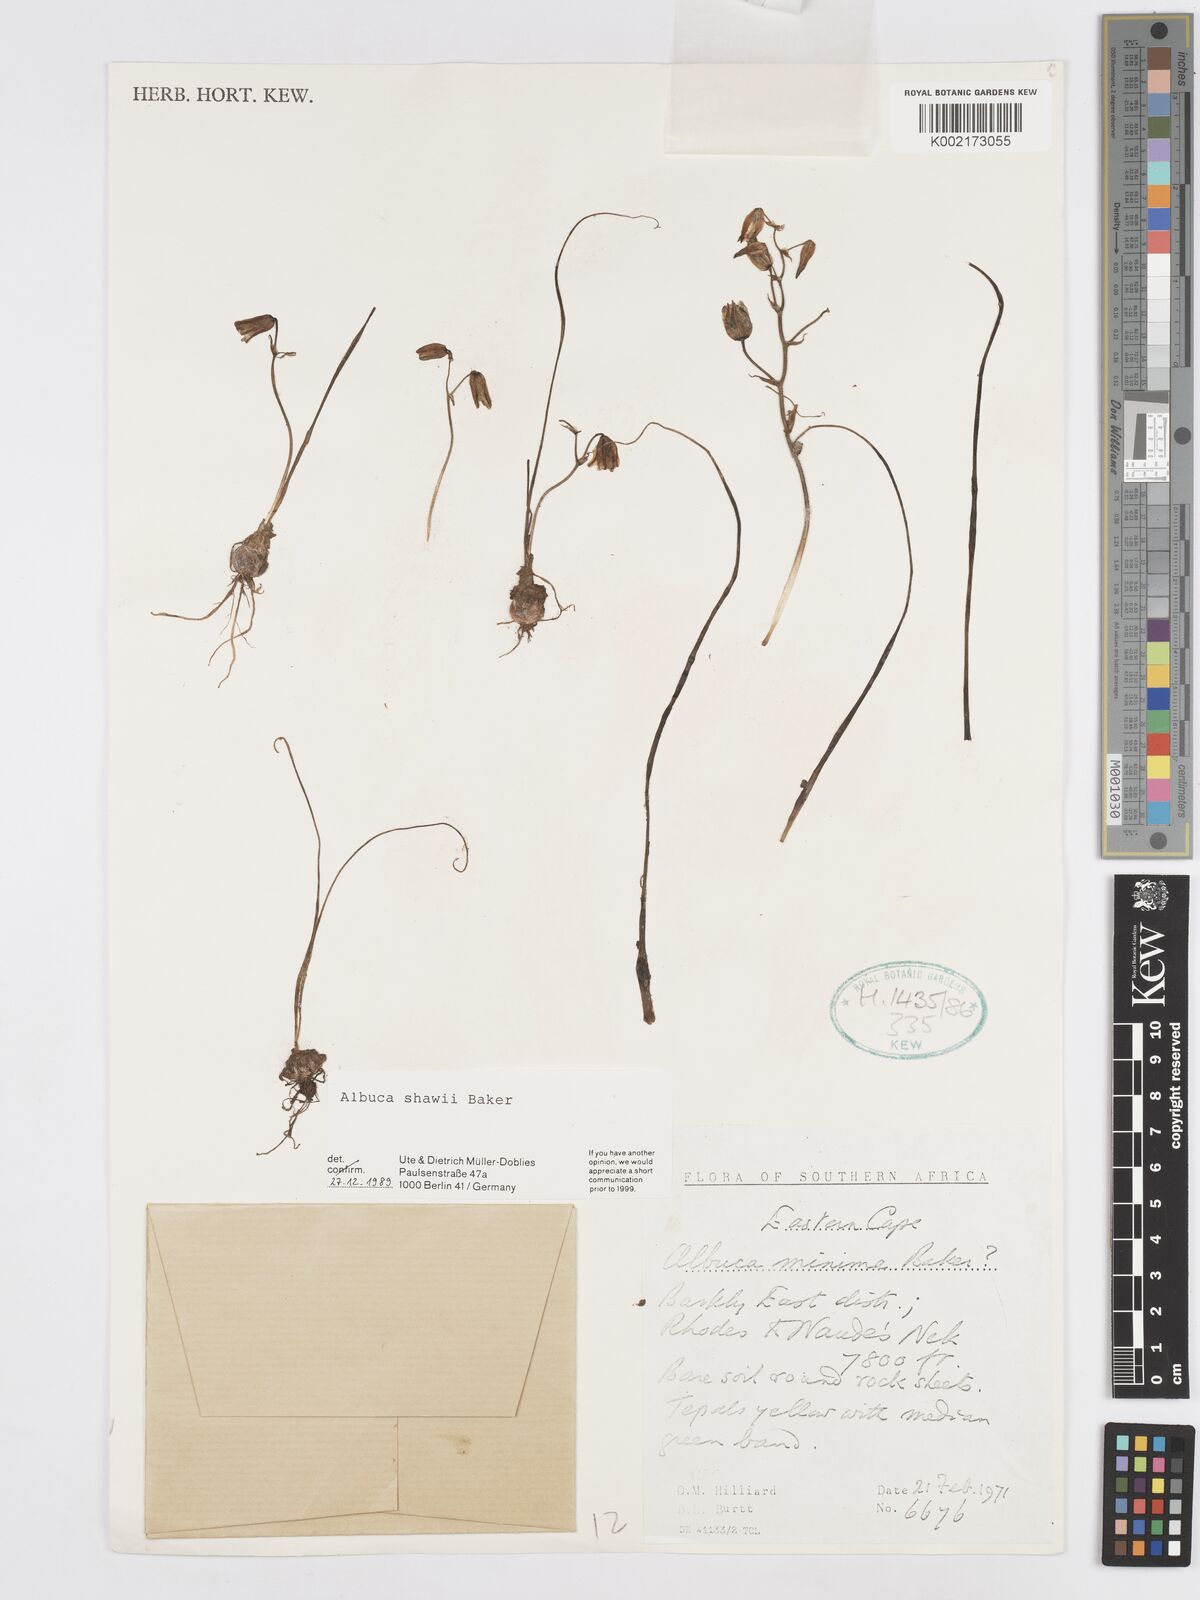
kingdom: Plantae
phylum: Tracheophyta
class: Liliopsida
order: Asparagales
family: Asparagaceae
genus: Albuca
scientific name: Albuca shawii
